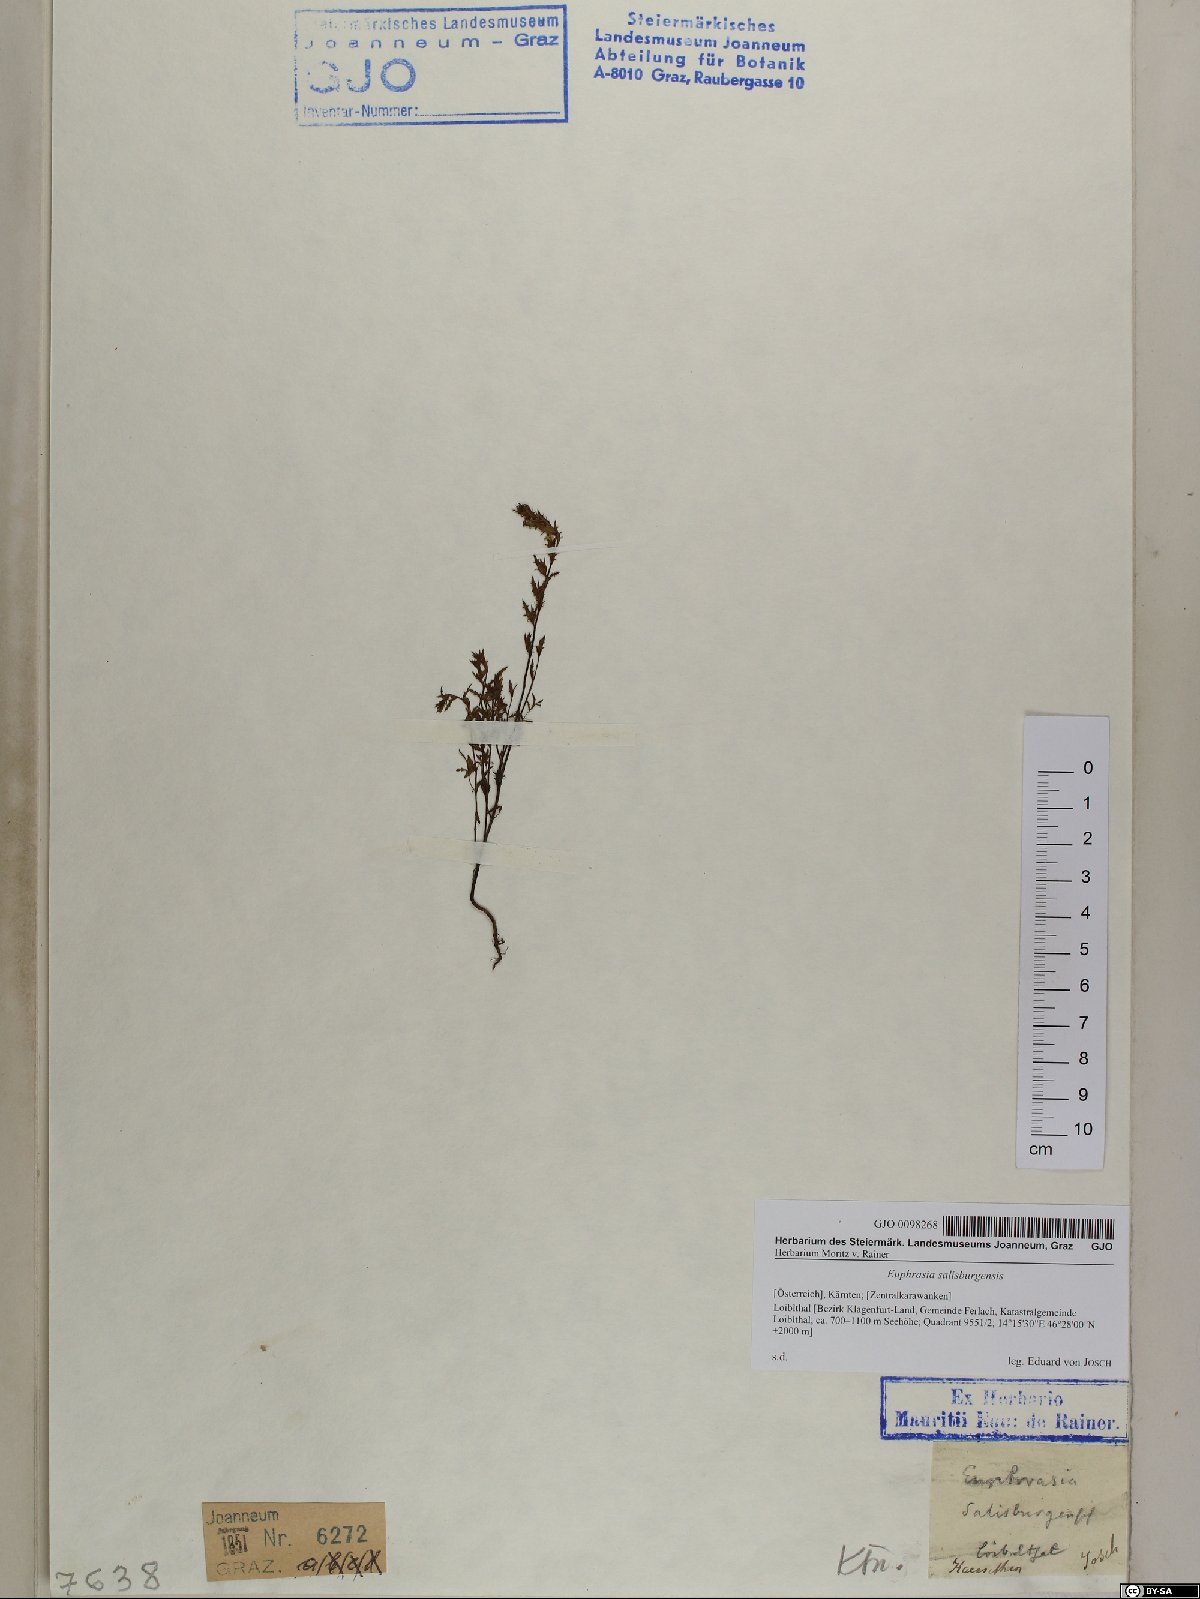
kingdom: Plantae
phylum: Tracheophyta
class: Magnoliopsida
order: Lamiales
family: Orobanchaceae
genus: Euphrasia
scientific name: Euphrasia salisburgensis
